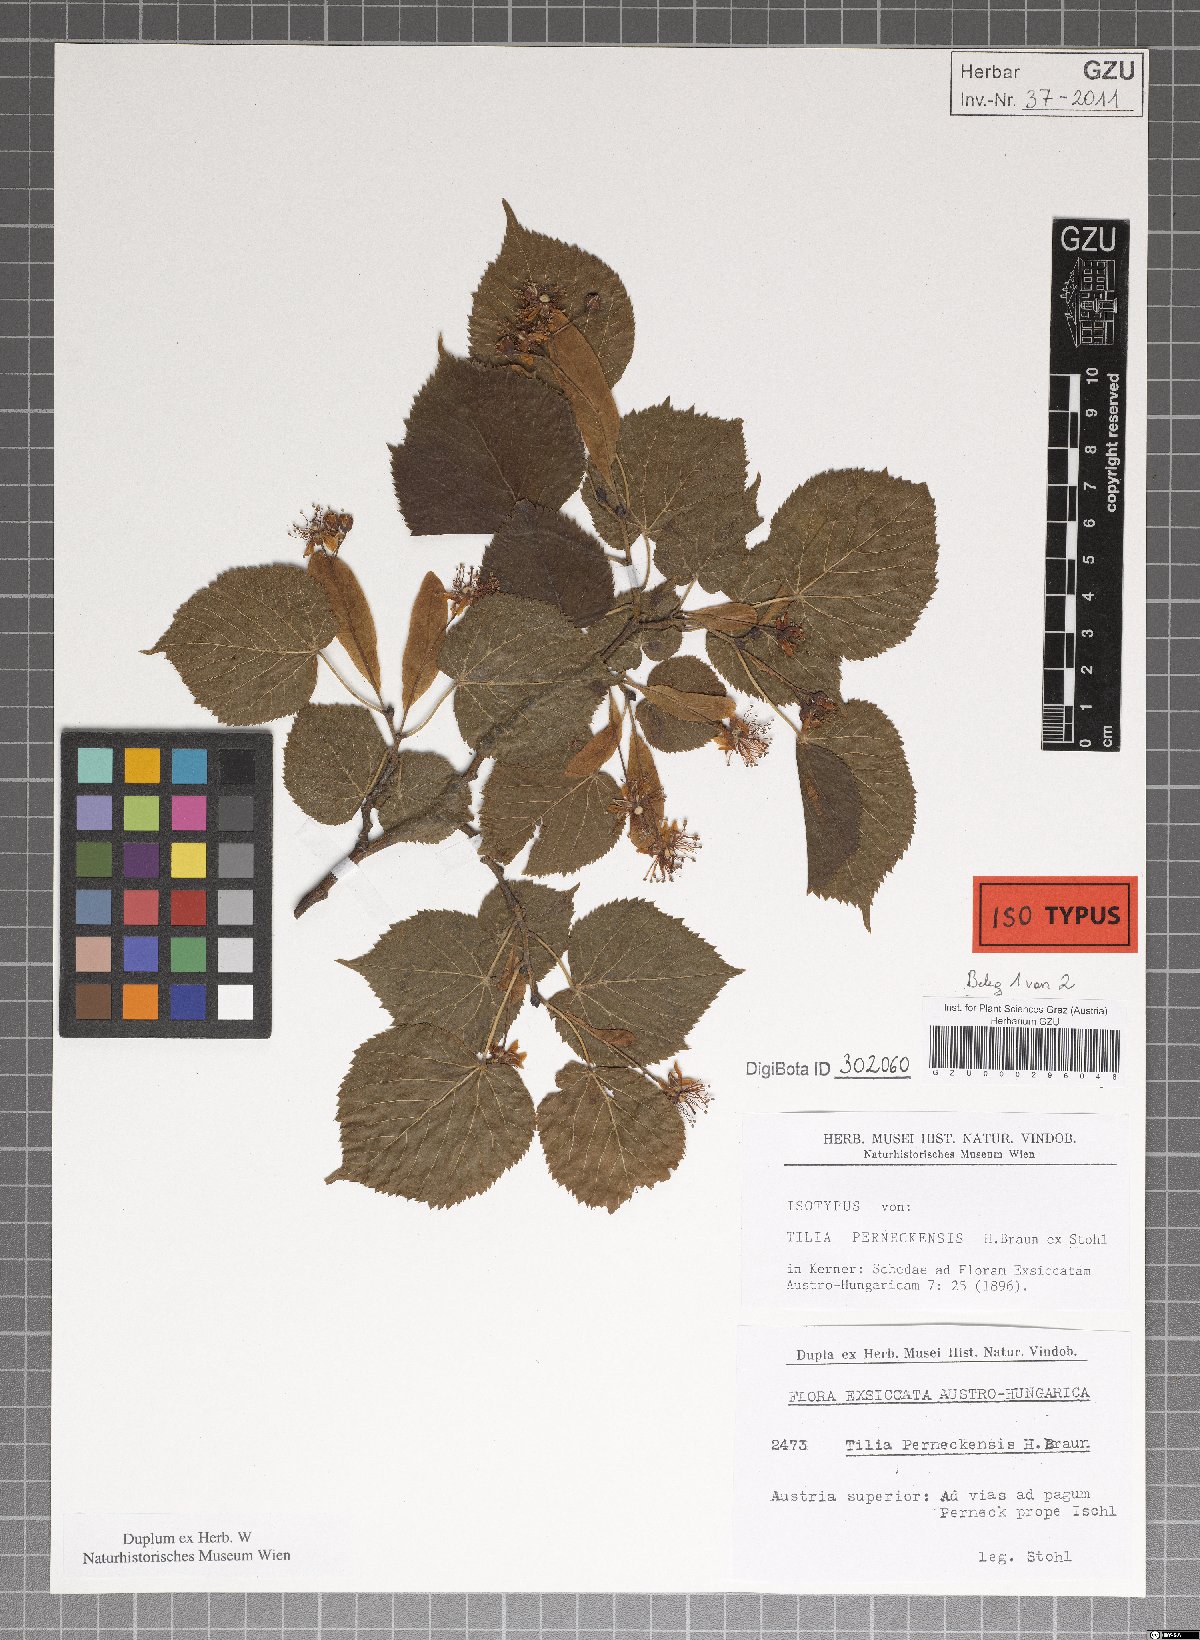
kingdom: Plantae
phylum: Tracheophyta
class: Magnoliopsida
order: Malvales
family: Malvaceae
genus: Tilia
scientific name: Tilia perneckensis
